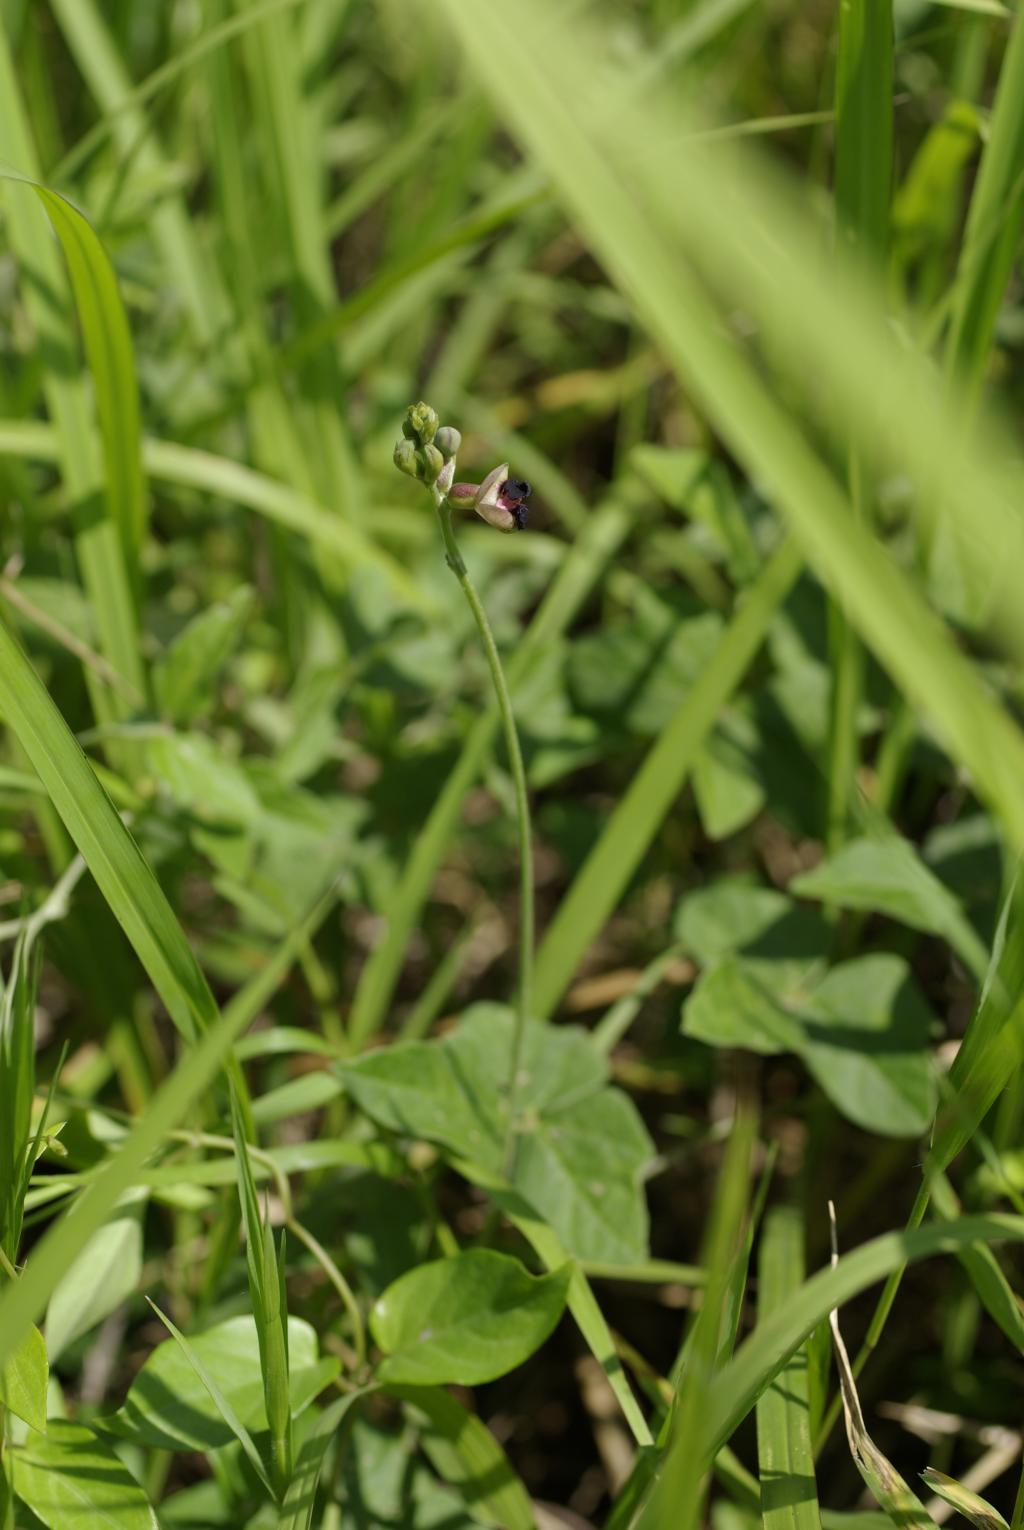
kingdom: Plantae
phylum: Tracheophyta
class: Magnoliopsida
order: Fabales
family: Fabaceae
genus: Macroptilium
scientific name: Macroptilium atropurpureum
